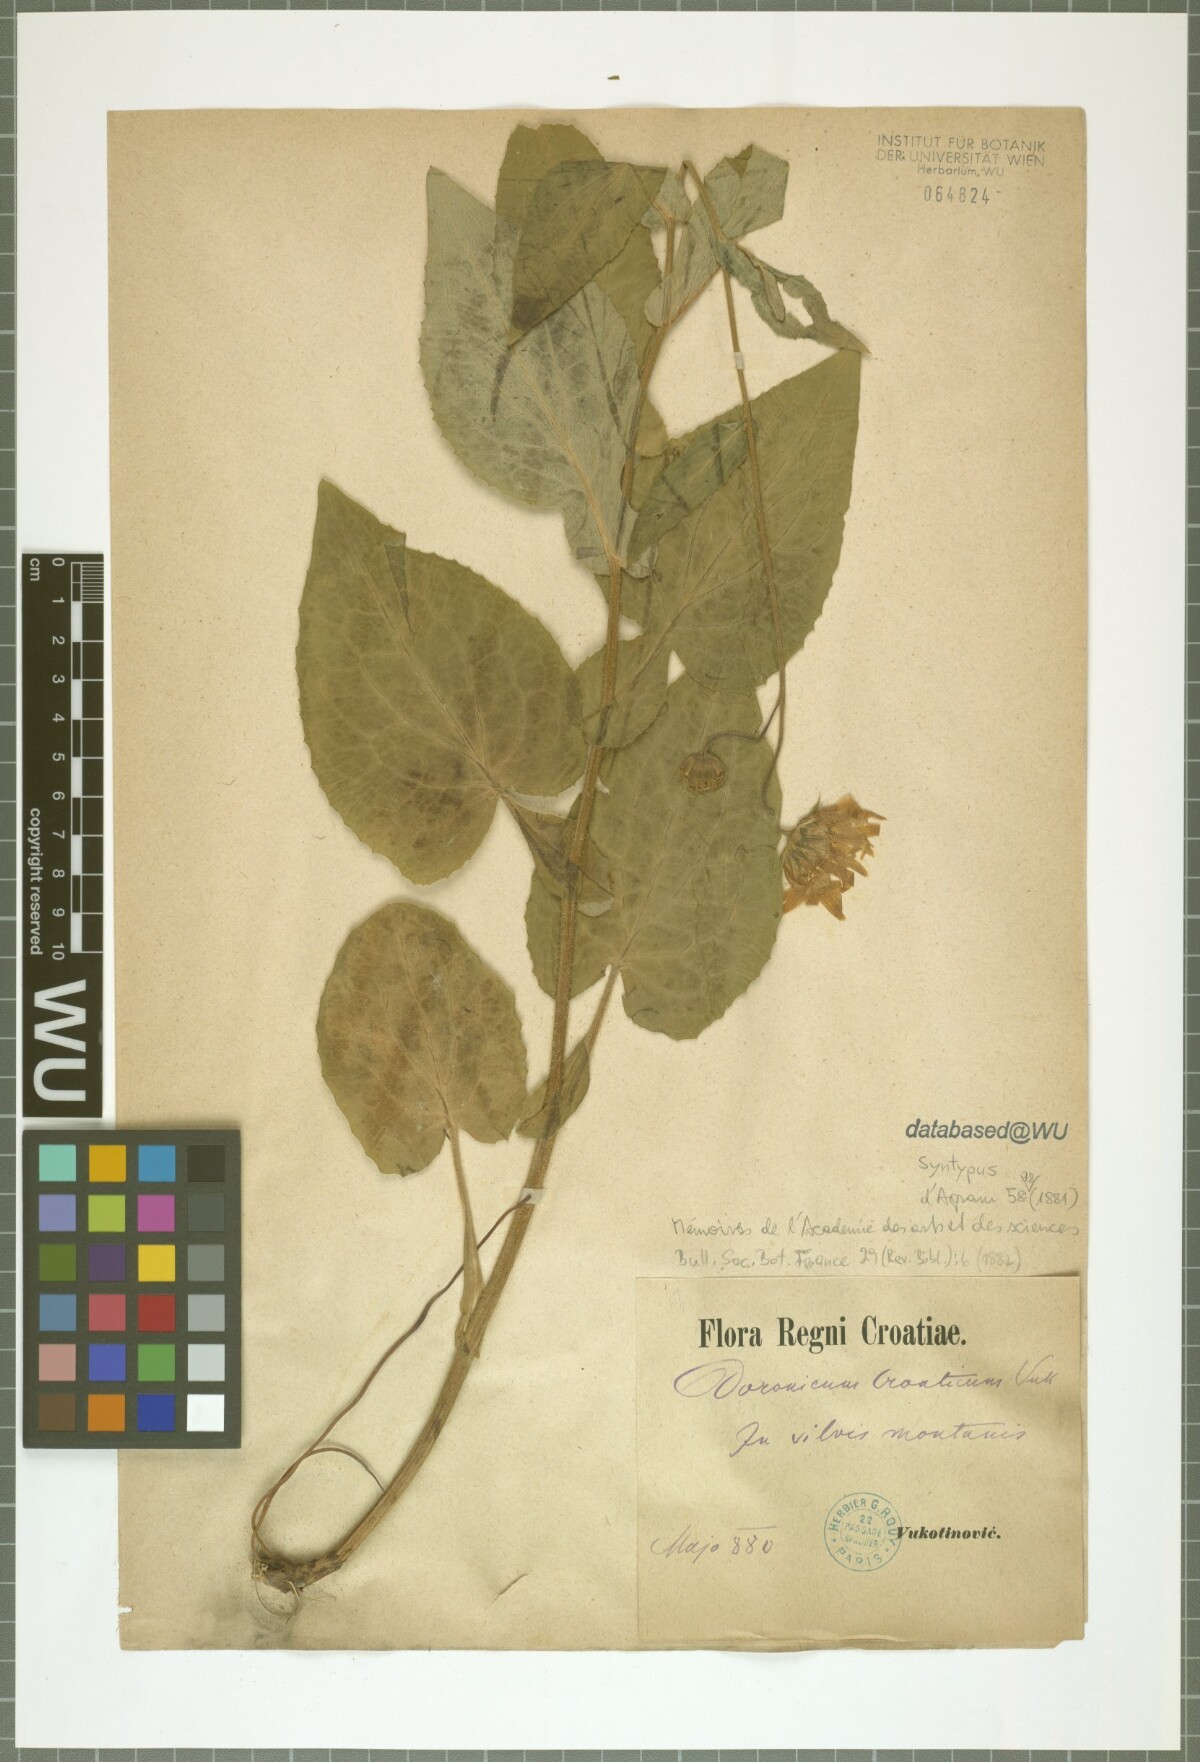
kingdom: Plantae
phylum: Tracheophyta
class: Magnoliopsida
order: Asterales
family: Asteraceae
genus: Doronicum
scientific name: Doronicum croaticum
